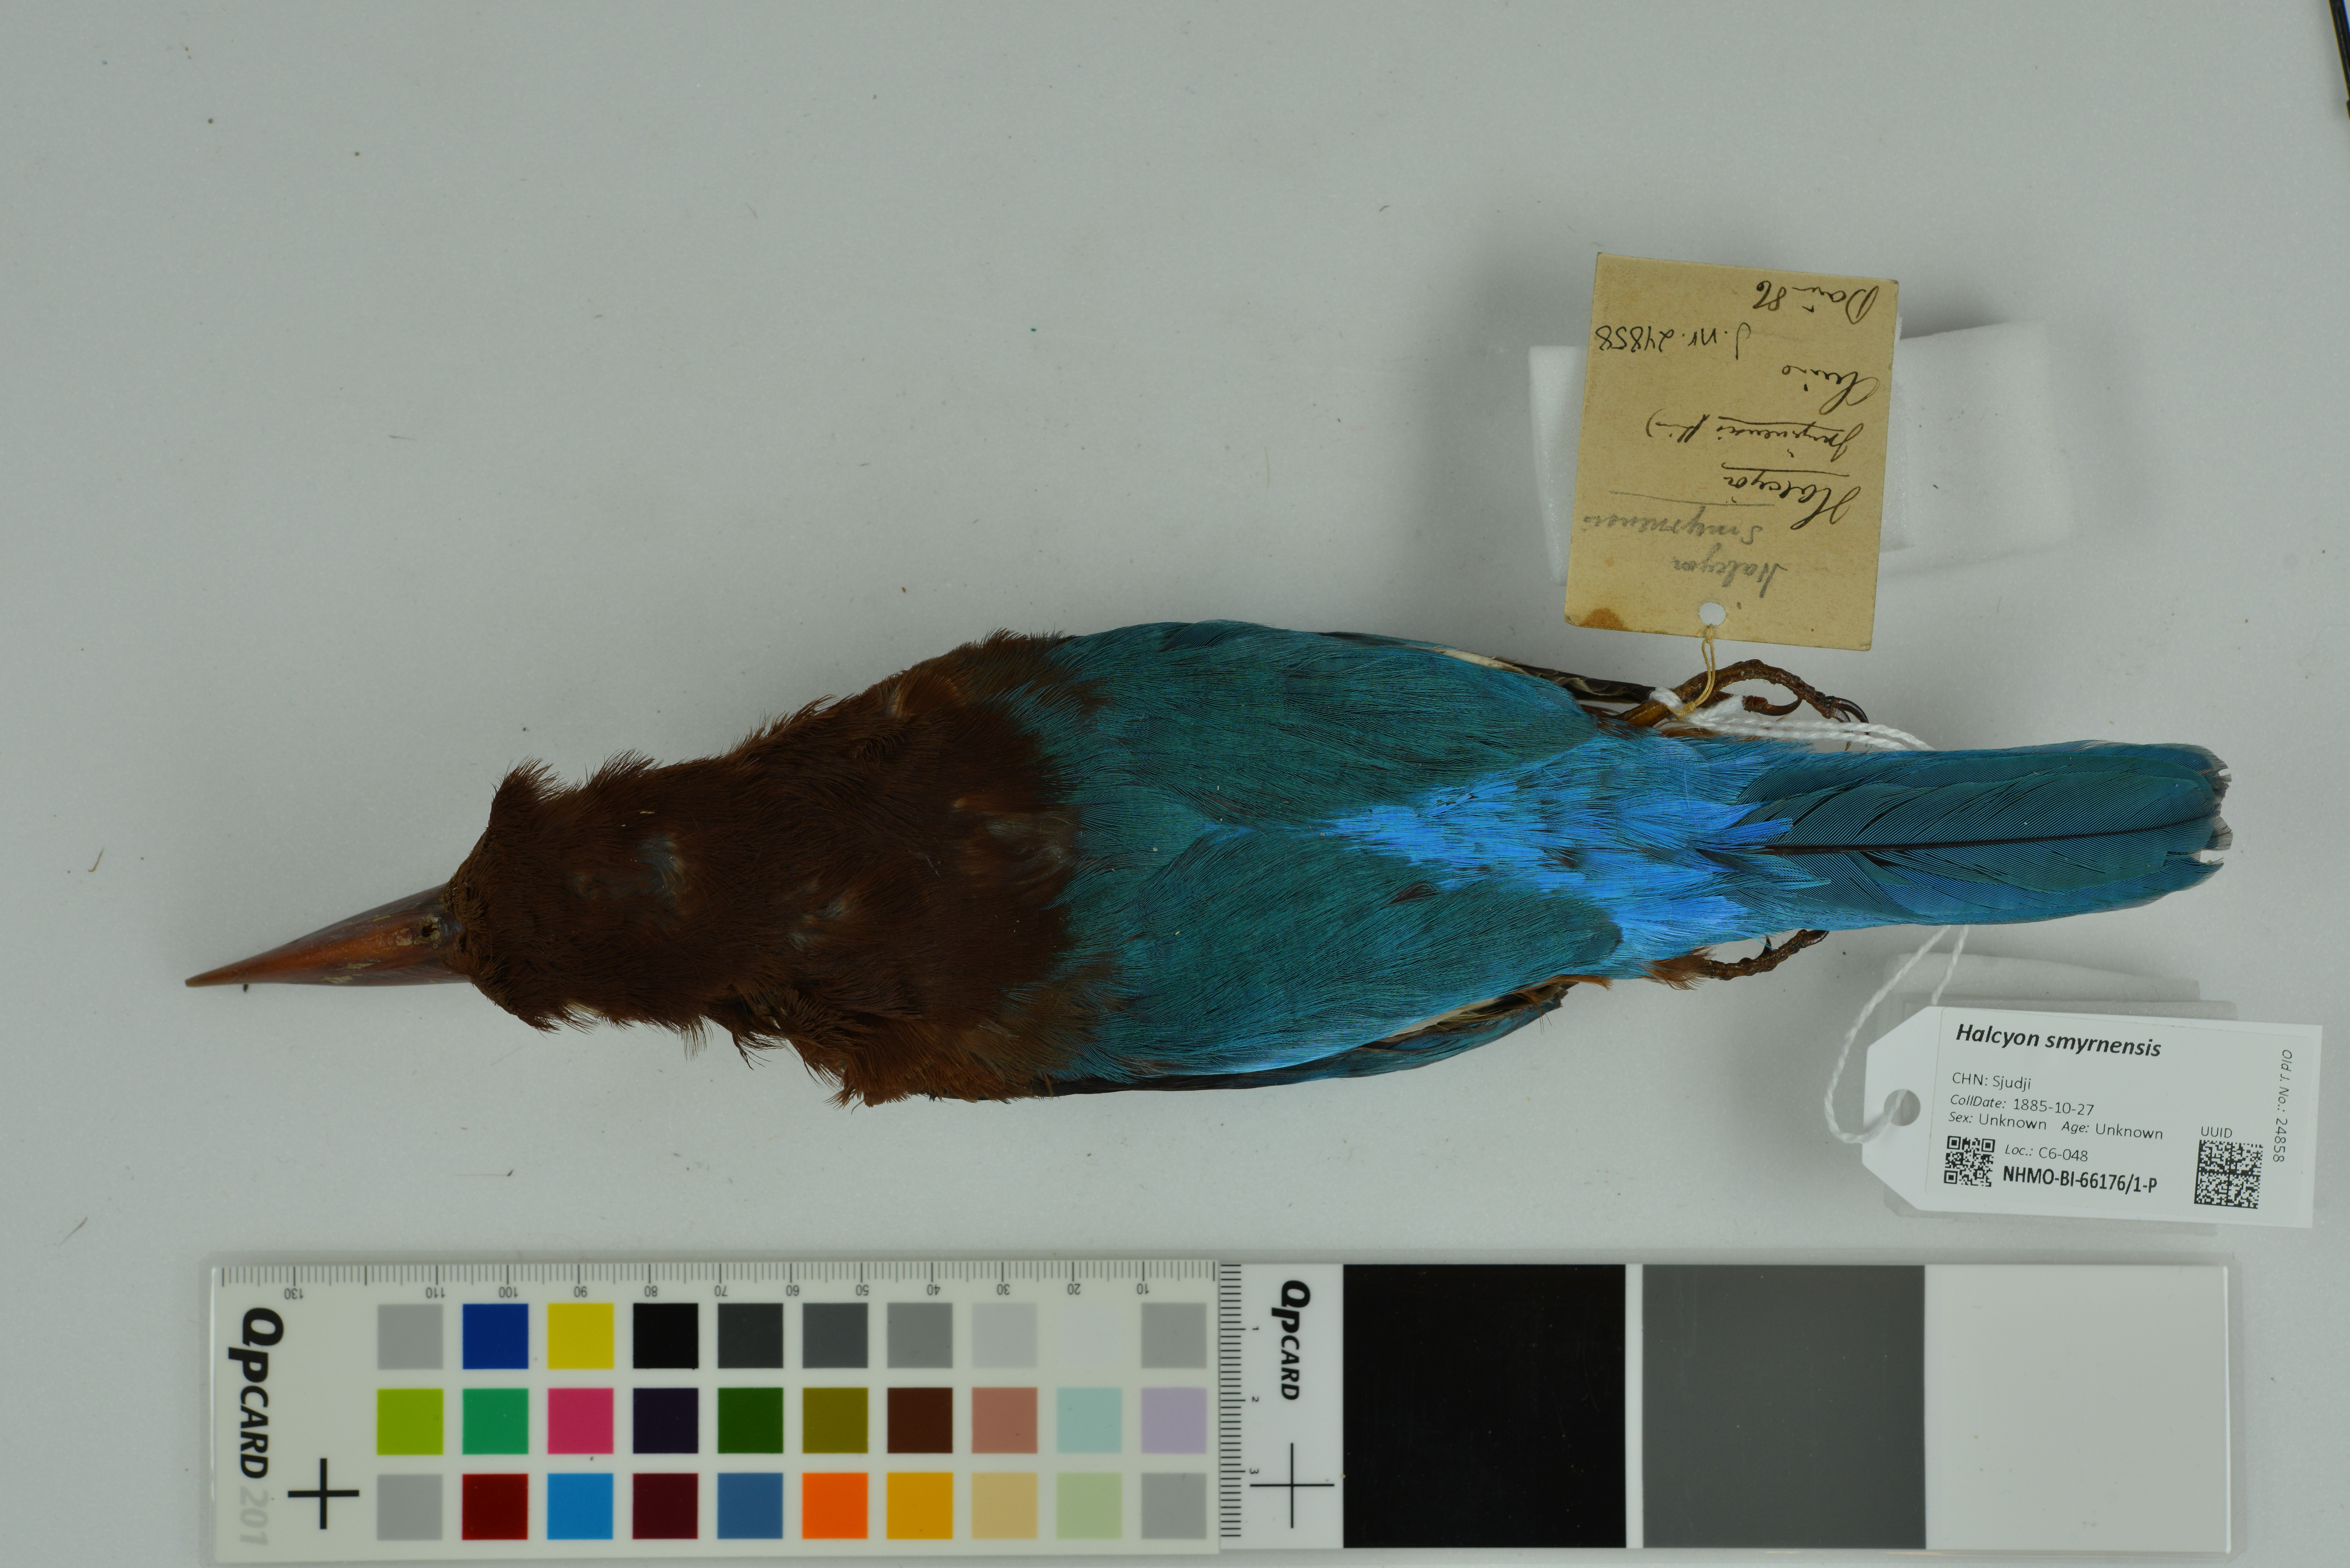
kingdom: Animalia
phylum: Chordata
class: Aves
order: Coraciiformes
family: Alcedinidae
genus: Halcyon
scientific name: Halcyon smyrnensis
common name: White-throated kingfisher
